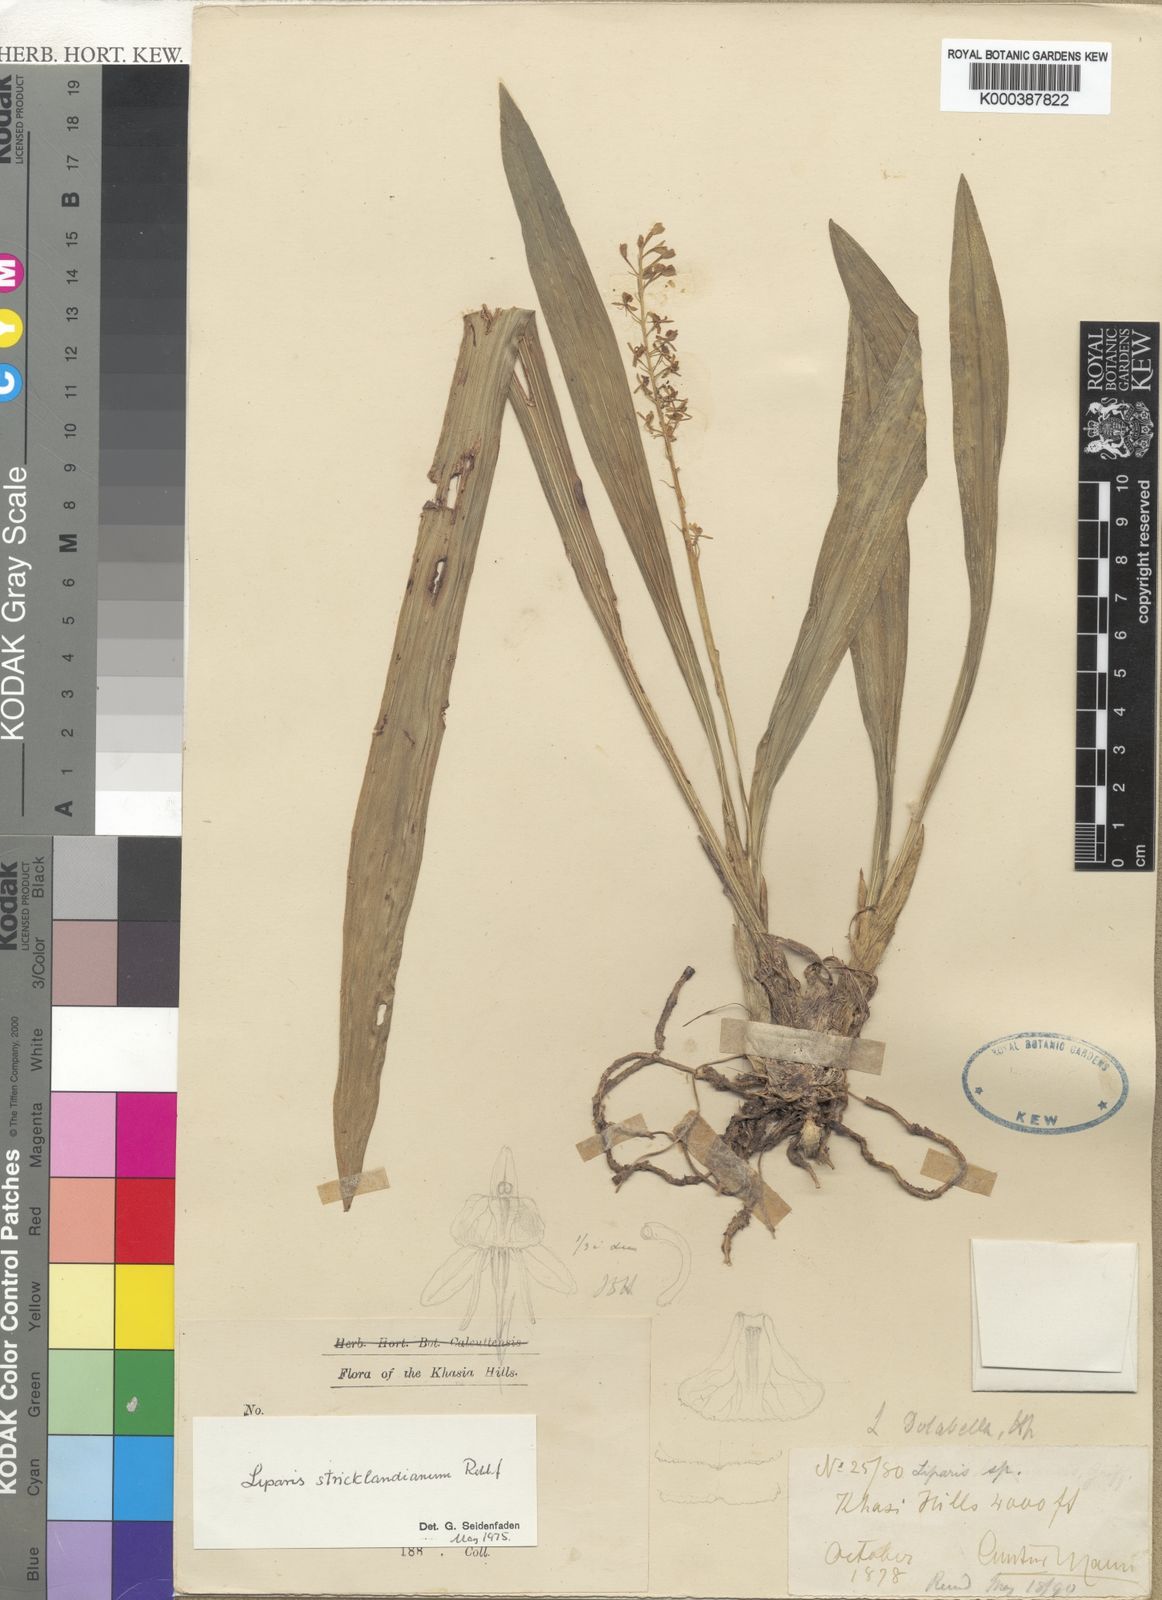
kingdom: Plantae
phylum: Tracheophyta
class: Liliopsida
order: Asparagales
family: Orchidaceae
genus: Liparis
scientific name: Liparis stricklandiana
